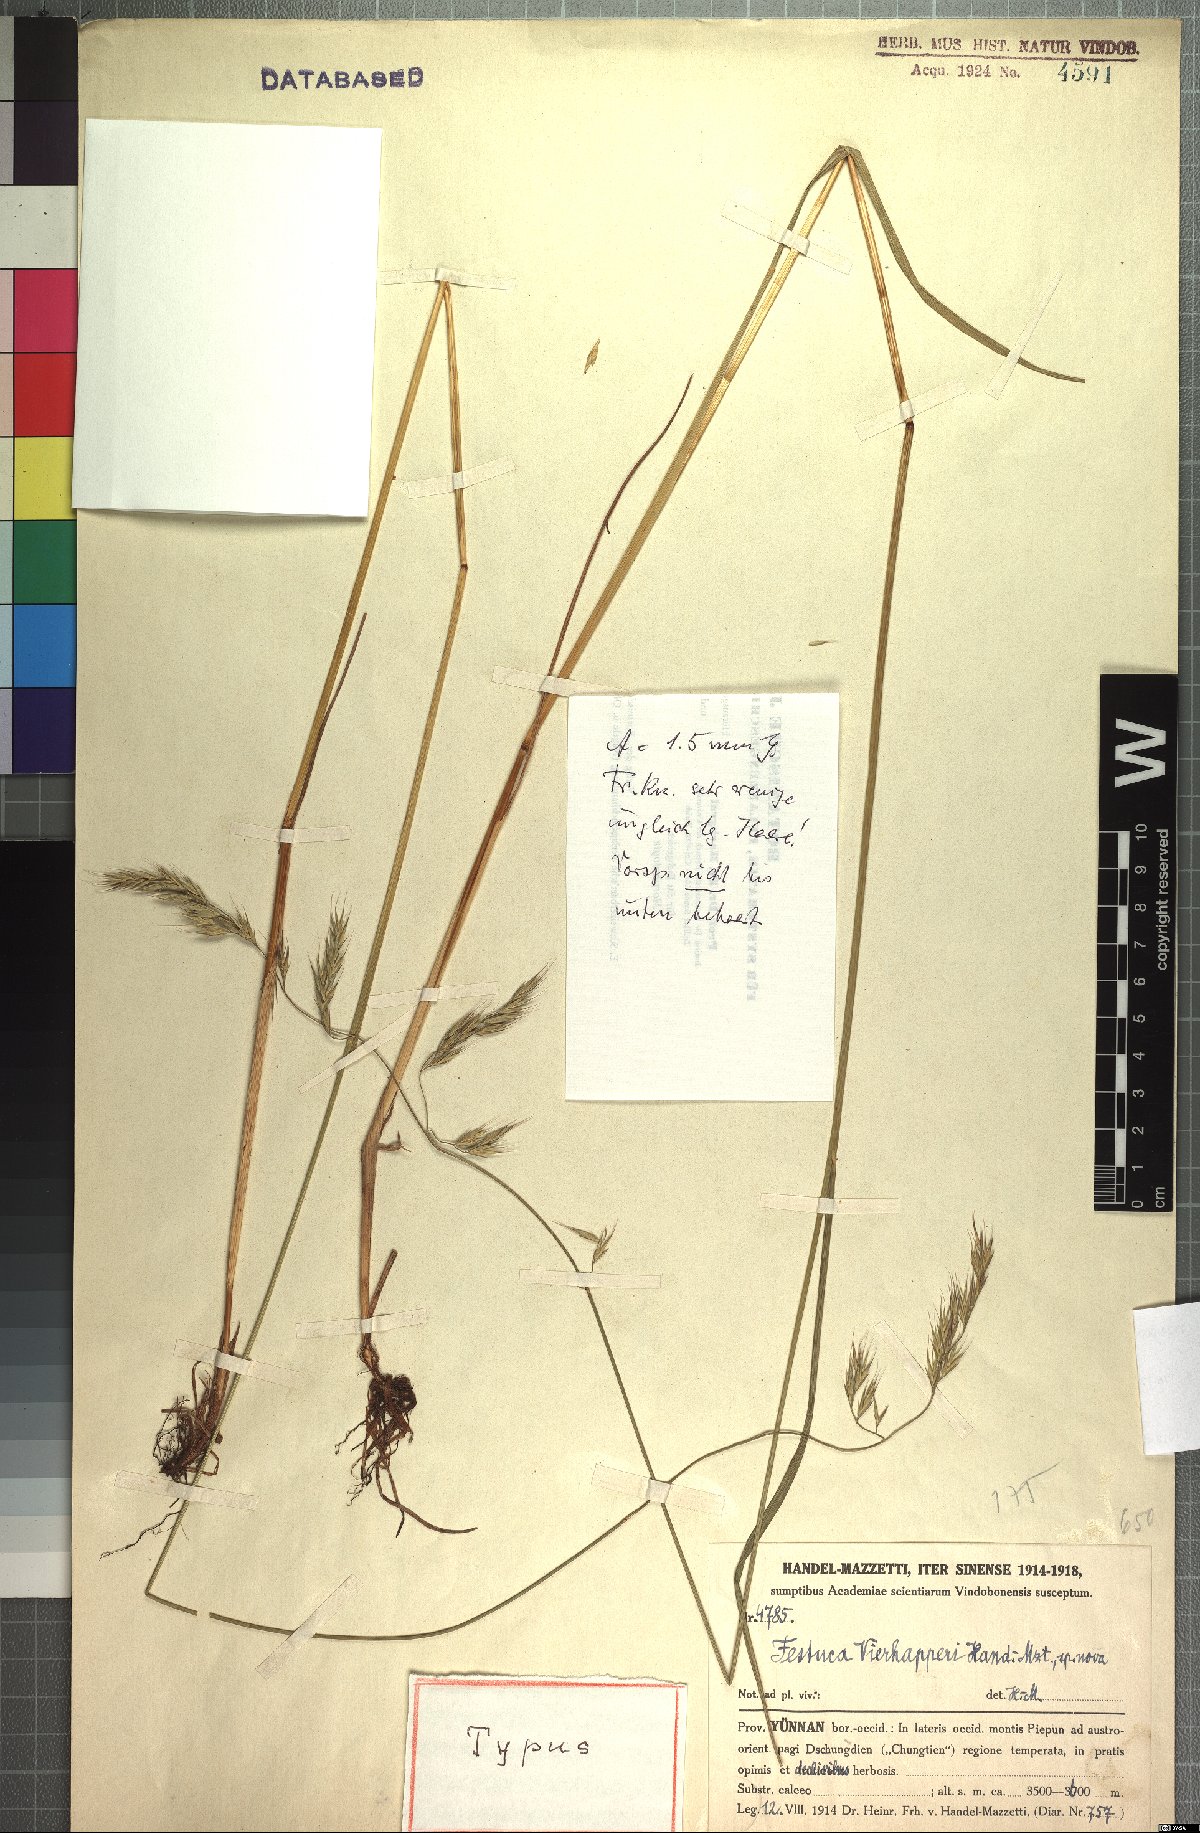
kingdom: Plantae
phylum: Tracheophyta
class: Liliopsida
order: Poales
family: Poaceae
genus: Festuca
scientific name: Festuca vierhapperi
